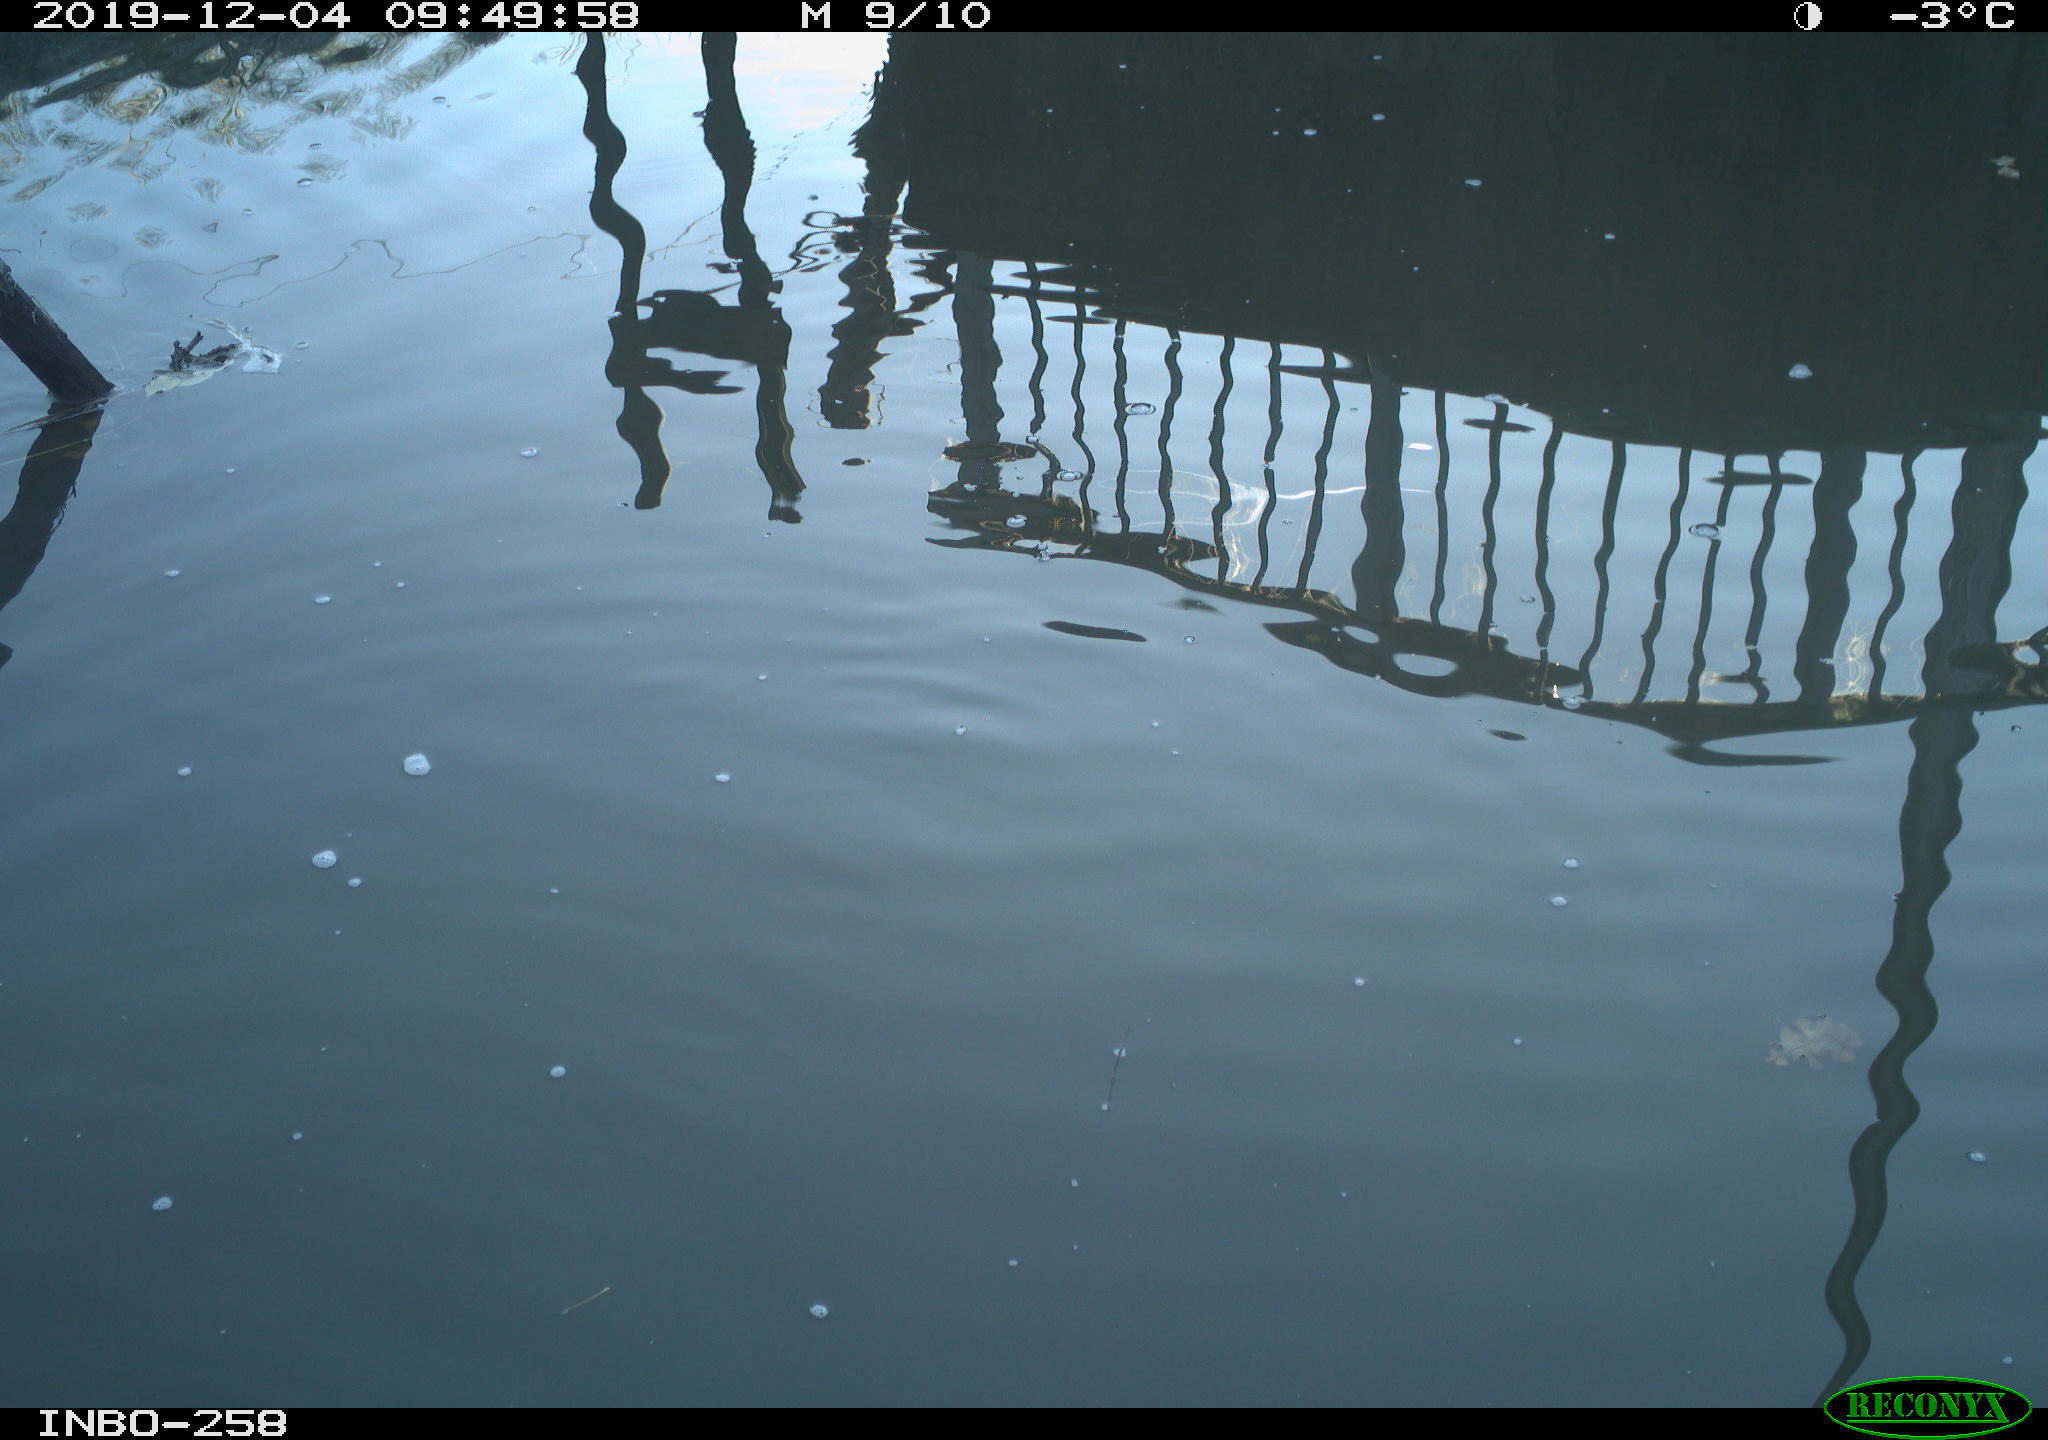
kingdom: Animalia
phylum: Chordata
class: Aves
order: Gruiformes
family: Rallidae
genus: Gallinula
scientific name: Gallinula chloropus
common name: Common moorhen
